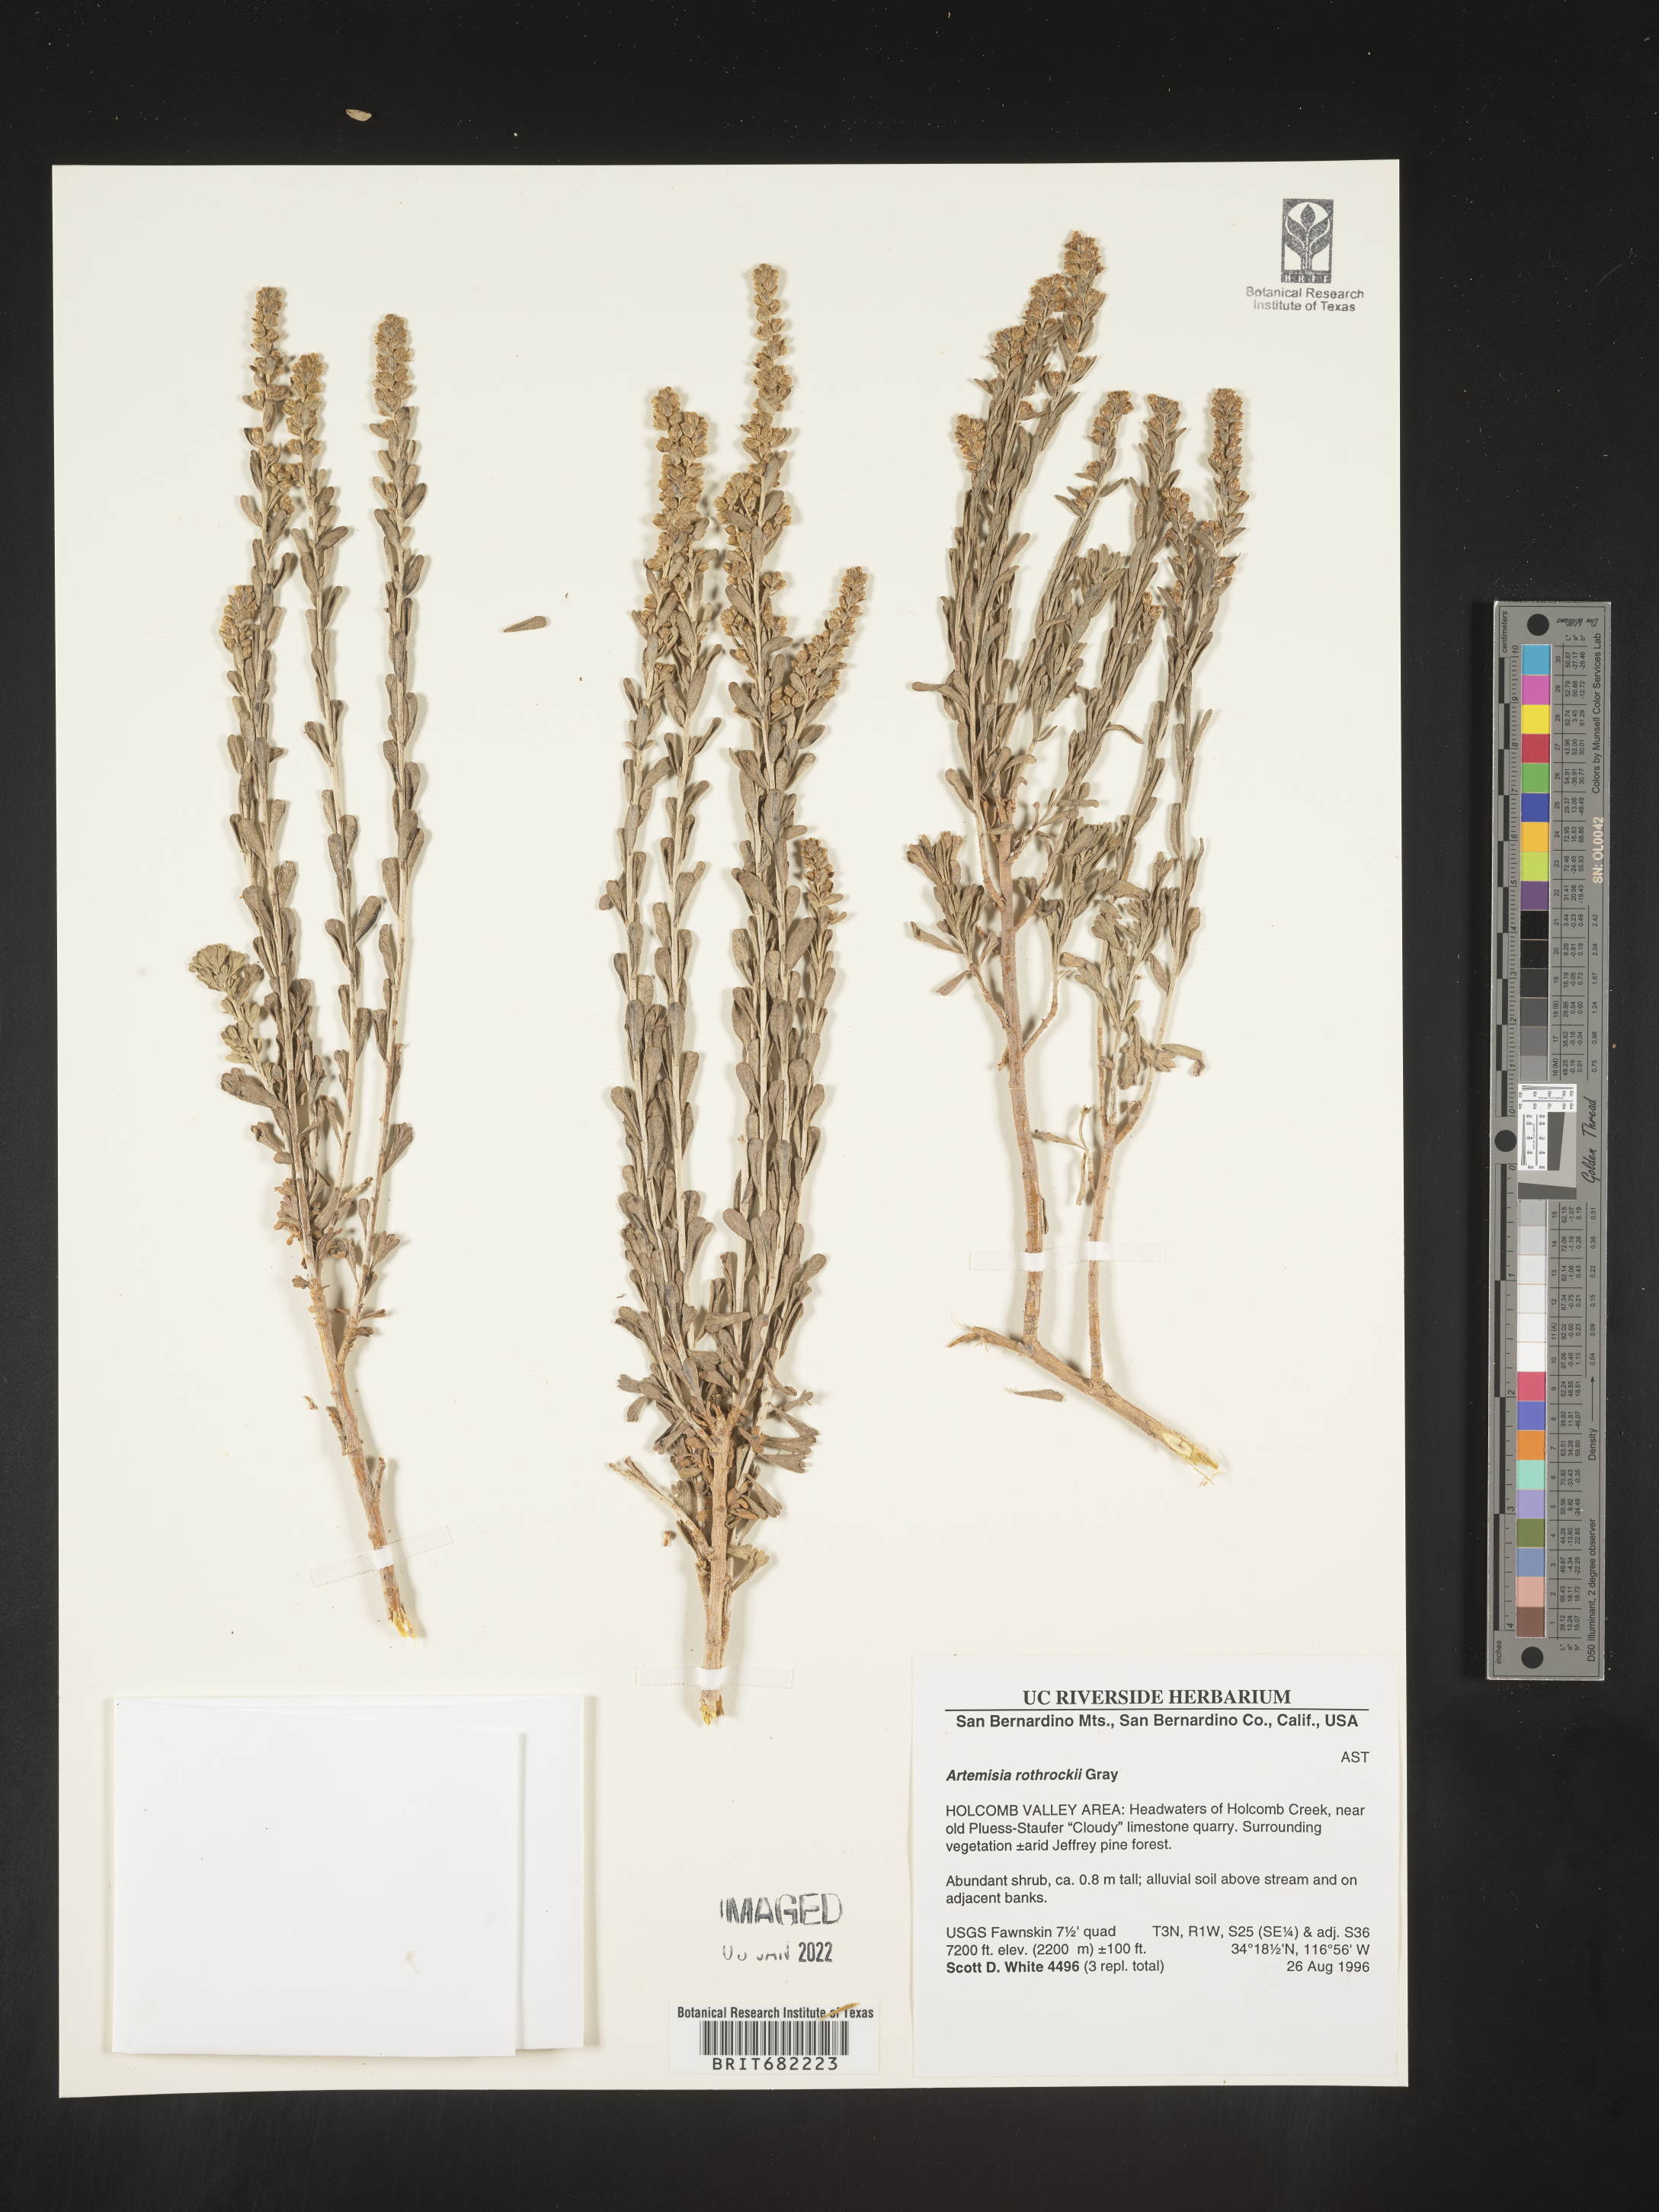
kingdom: Plantae
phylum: Tracheophyta
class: Magnoliopsida
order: Asterales
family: Asteraceae
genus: Artemisia
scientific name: Artemisia rothrockii
